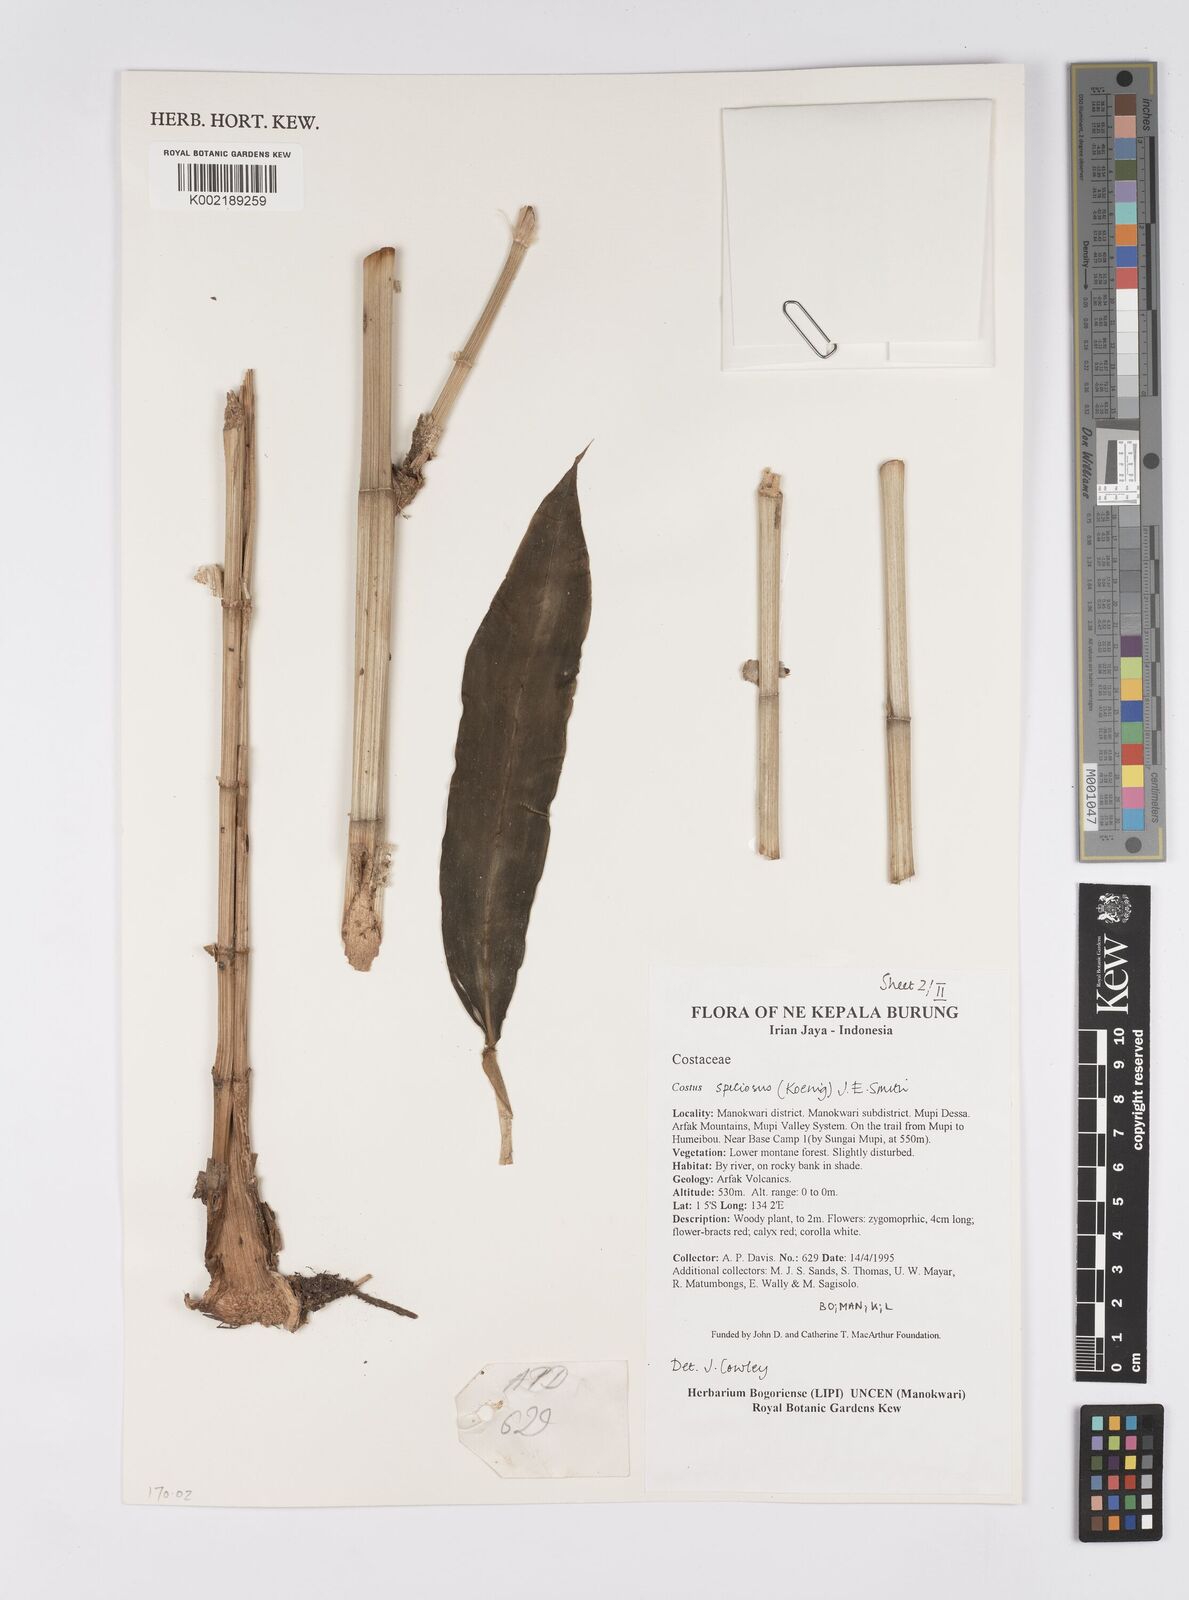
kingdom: Plantae
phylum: Tracheophyta
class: Liliopsida
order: Zingiberales
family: Costaceae
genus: Hellenia
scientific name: Hellenia speciosa
